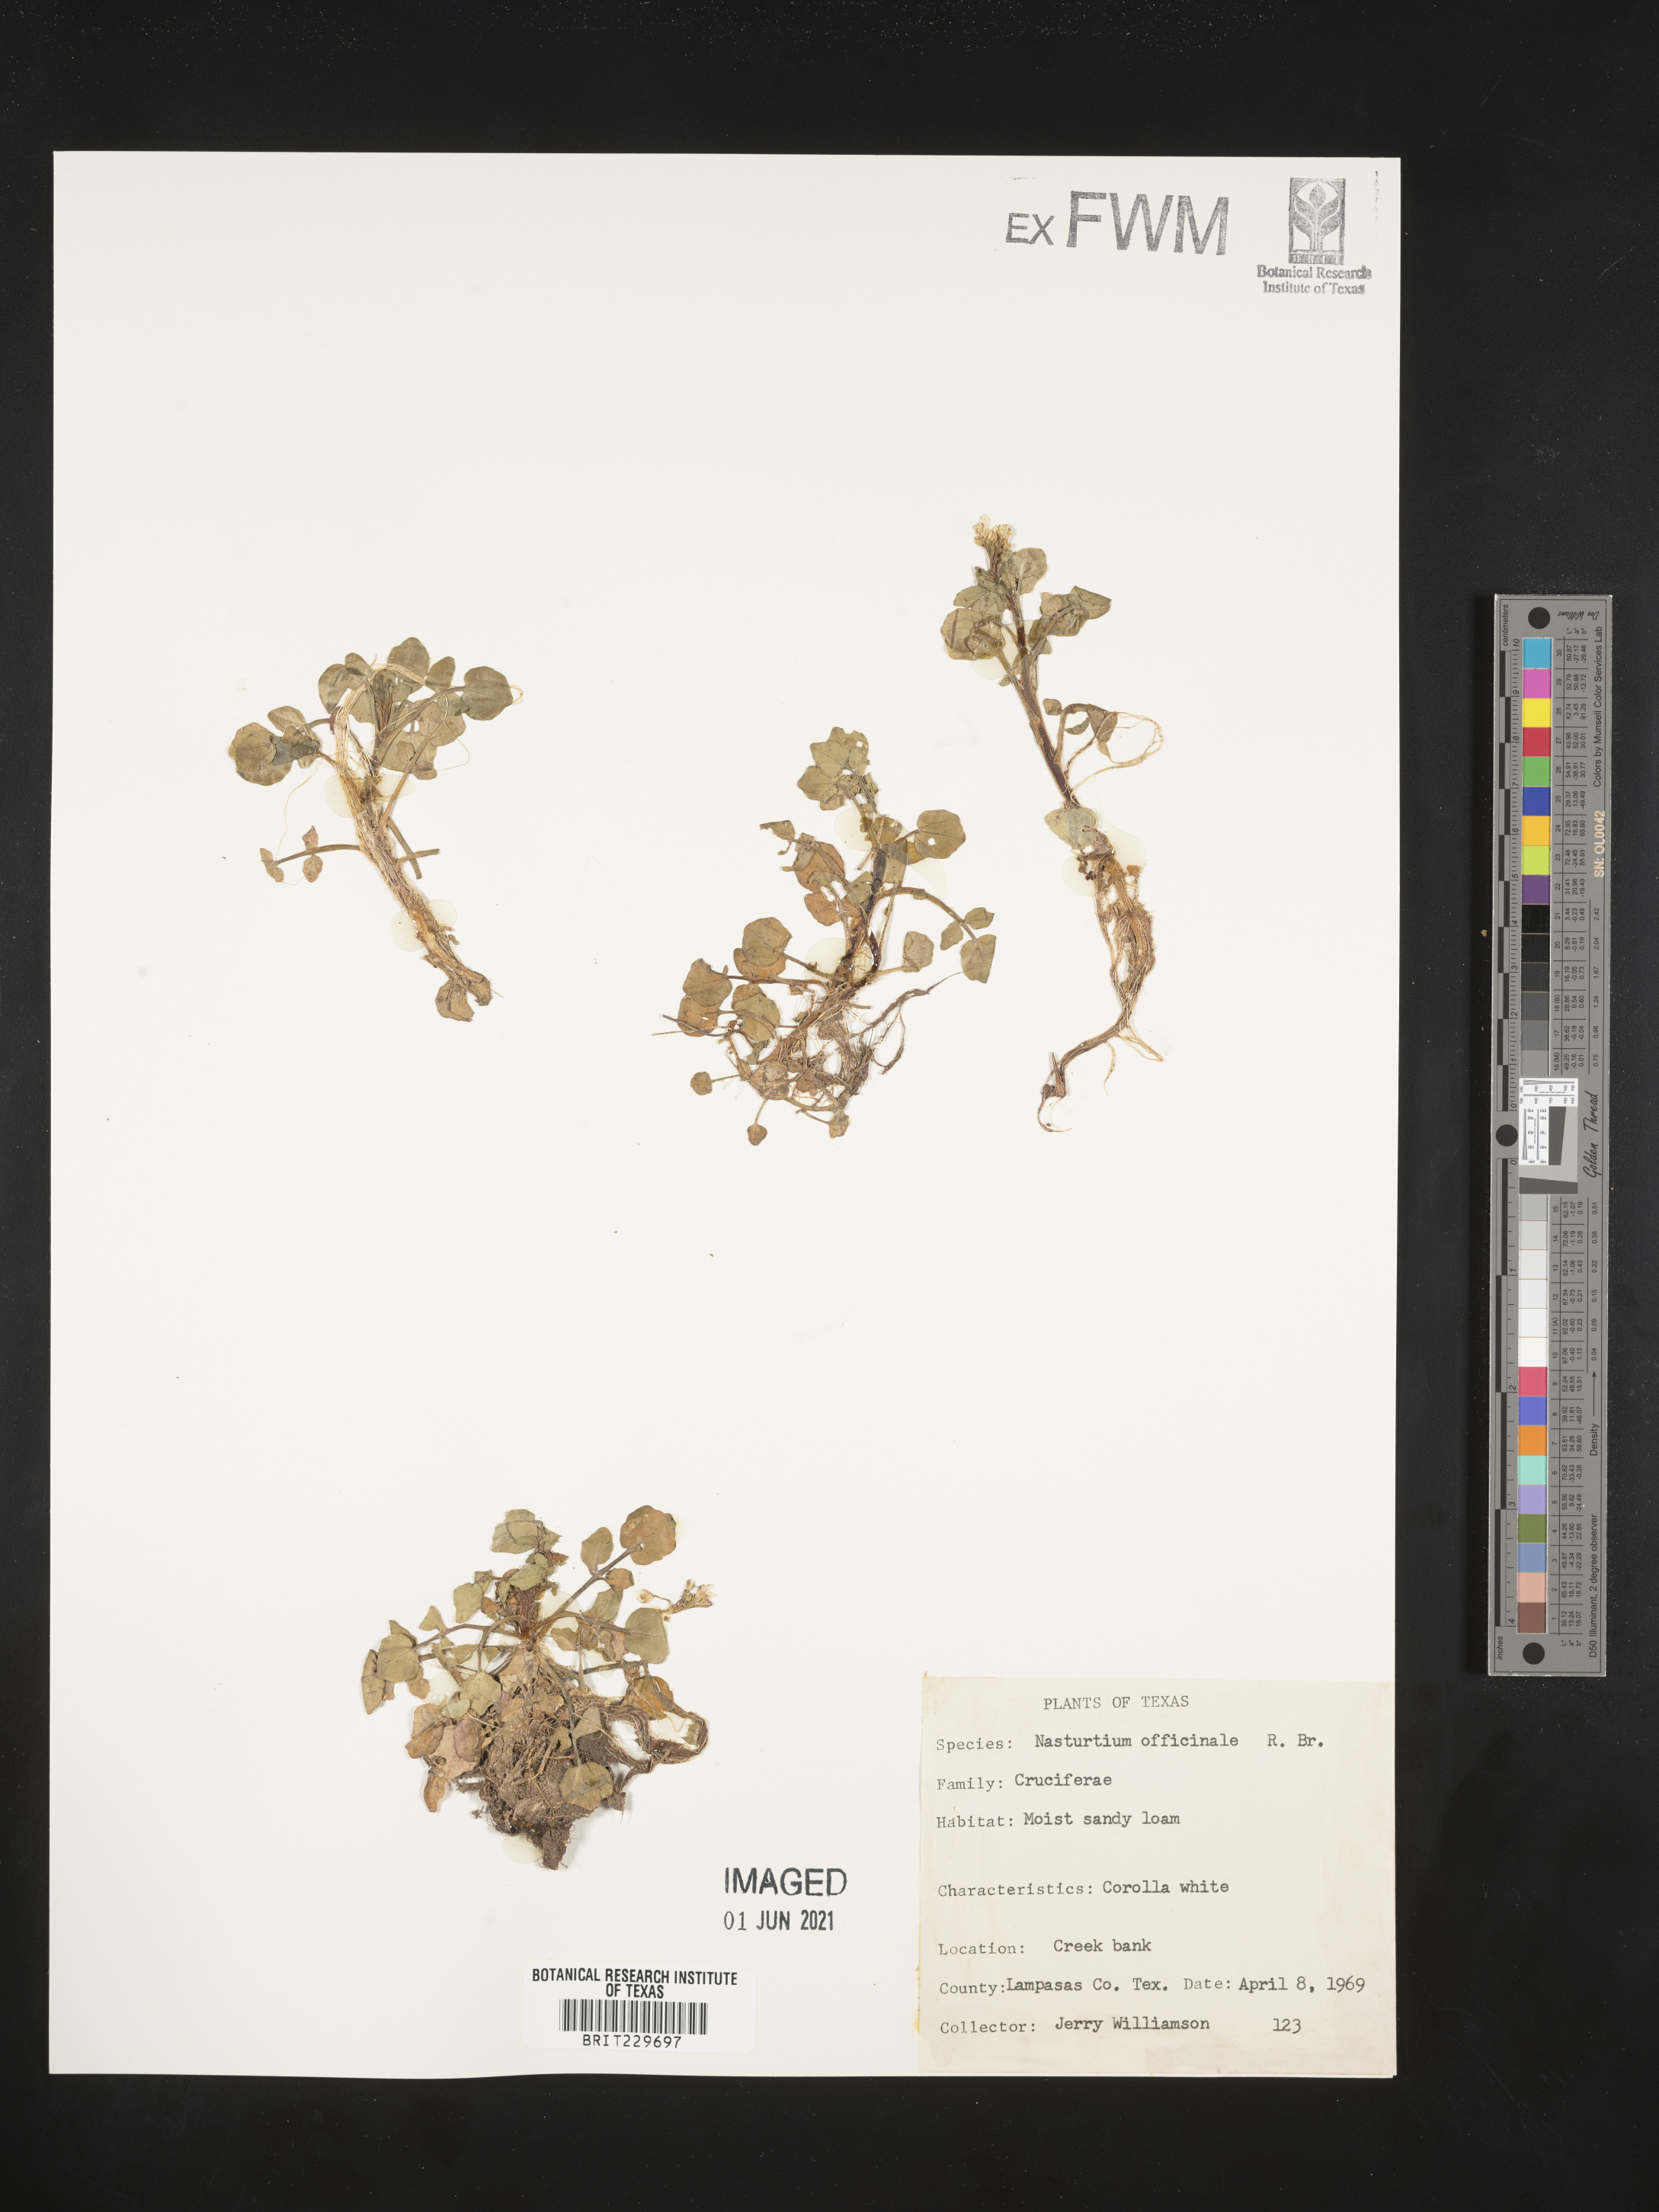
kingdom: Plantae
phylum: Tracheophyta
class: Magnoliopsida
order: Brassicales
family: Brassicaceae
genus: Nasturtium
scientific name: Nasturtium officinale
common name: Watercress
